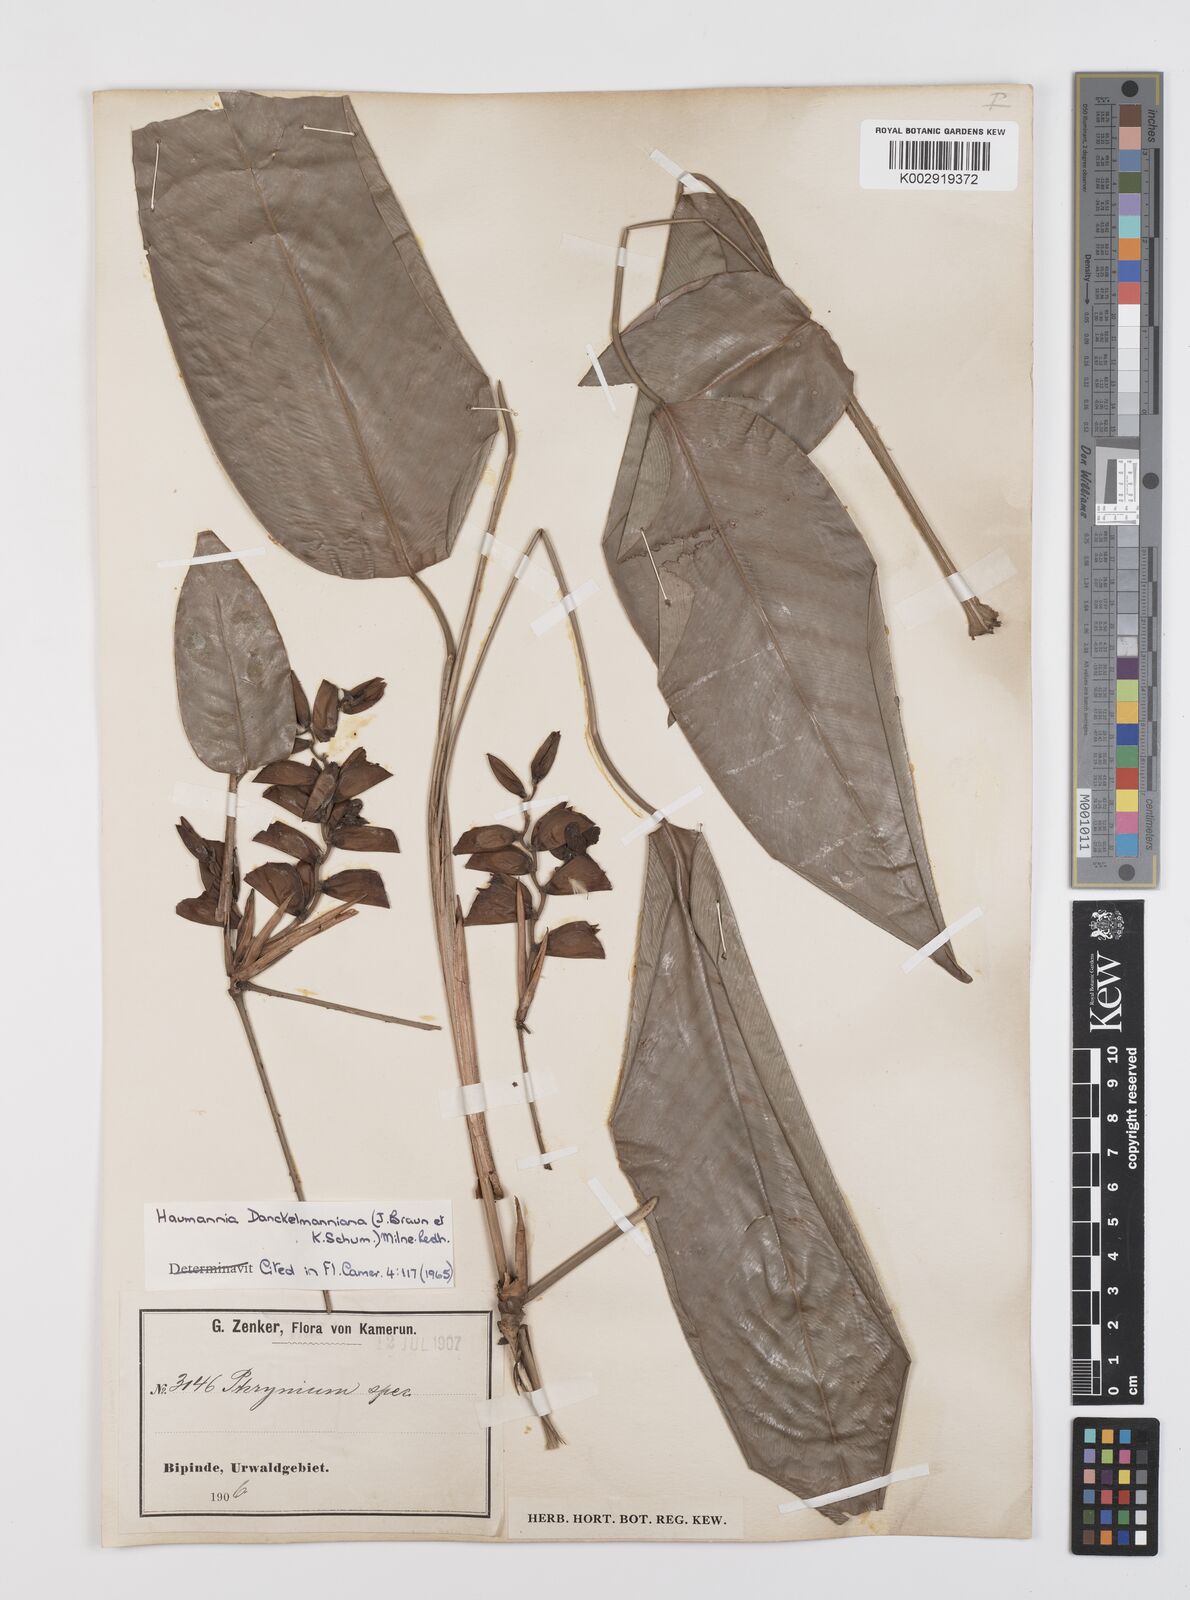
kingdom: Plantae
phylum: Tracheophyta
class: Liliopsida
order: Zingiberales
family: Marantaceae
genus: Haumania
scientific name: Haumania danckelmaniana
